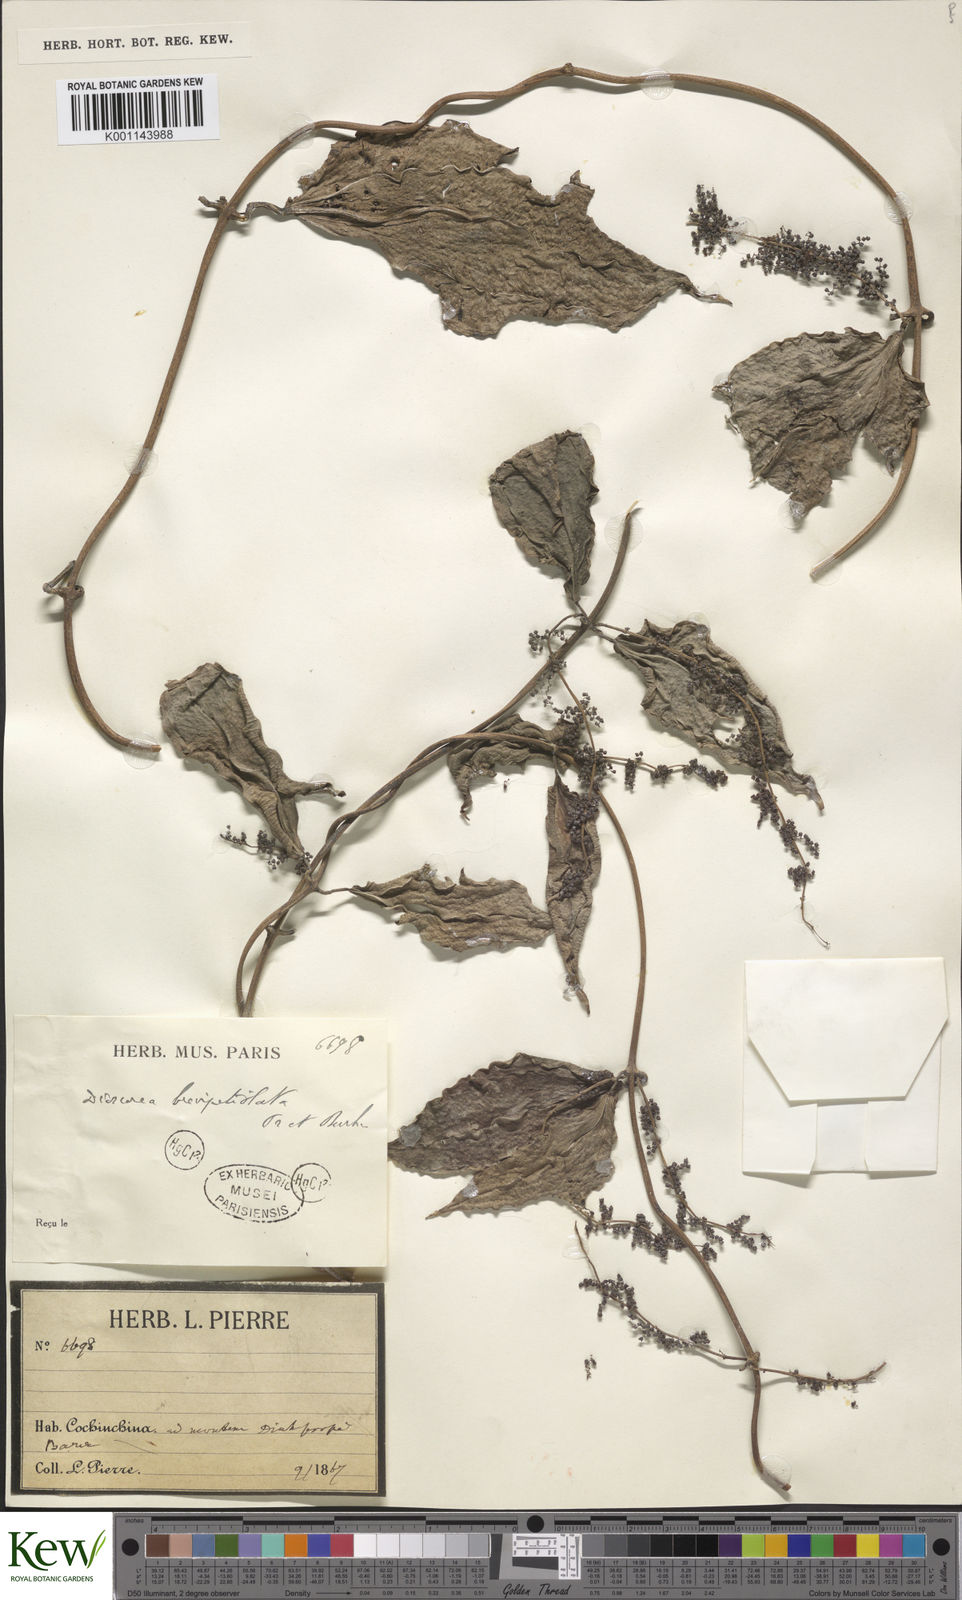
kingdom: Plantae
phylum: Tracheophyta
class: Liliopsida
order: Dioscoreales
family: Dioscoreaceae
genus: Dioscorea
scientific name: Dioscorea brevipetiolata
